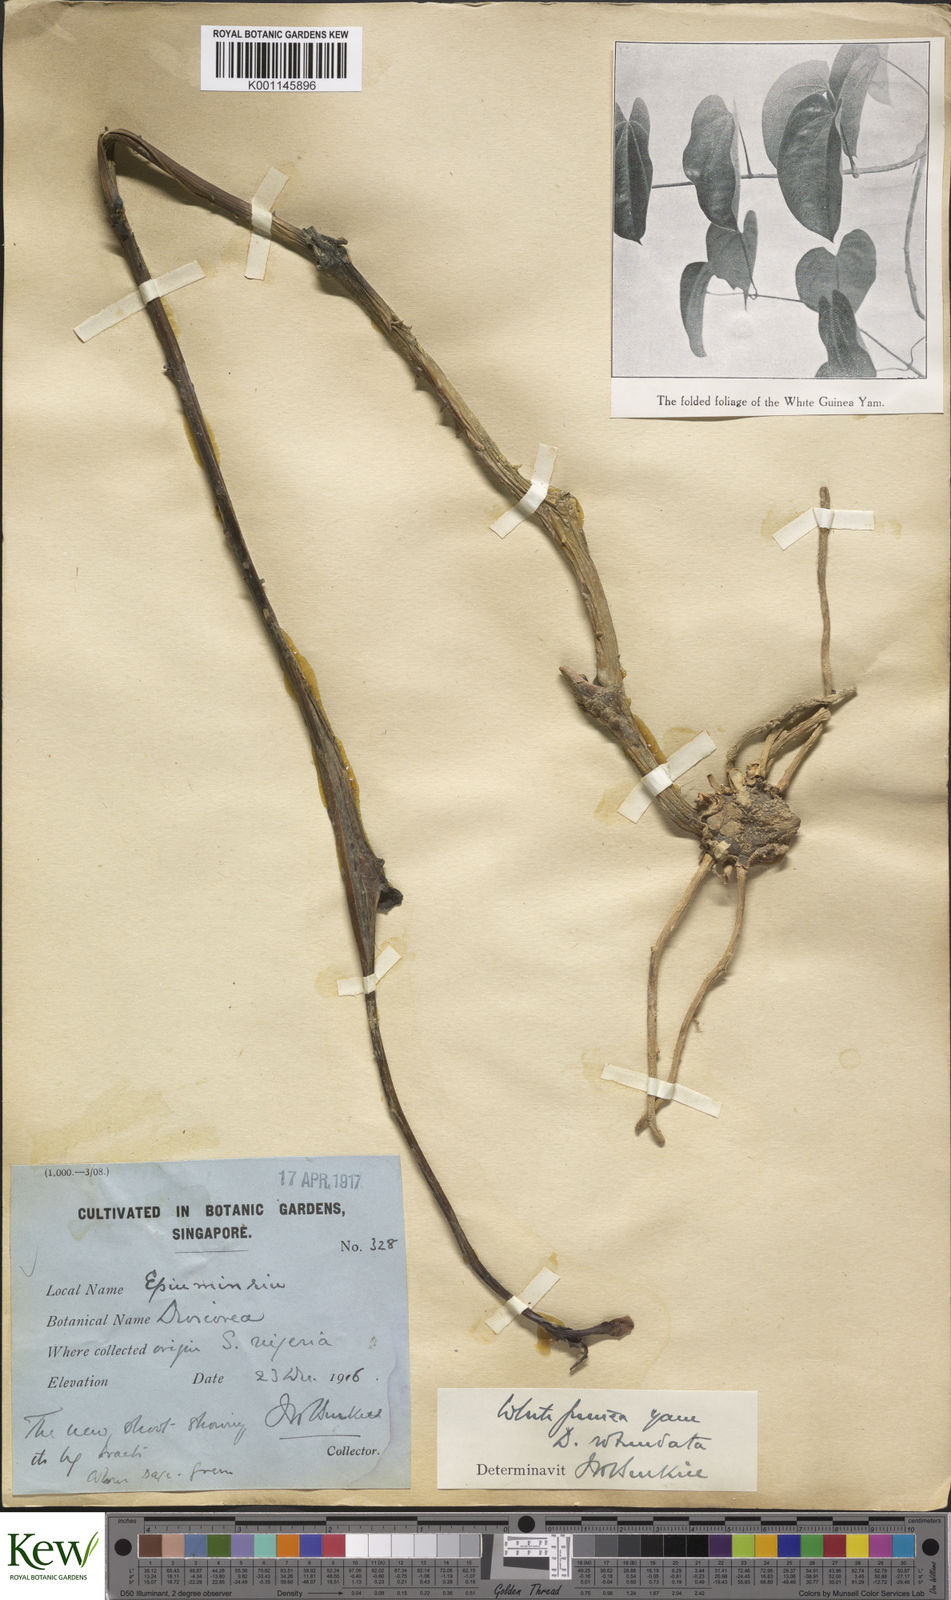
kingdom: Plantae
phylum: Tracheophyta
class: Liliopsida
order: Dioscoreales
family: Dioscoreaceae
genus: Dioscorea
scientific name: Dioscorea cayenensis
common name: Attoto yam
